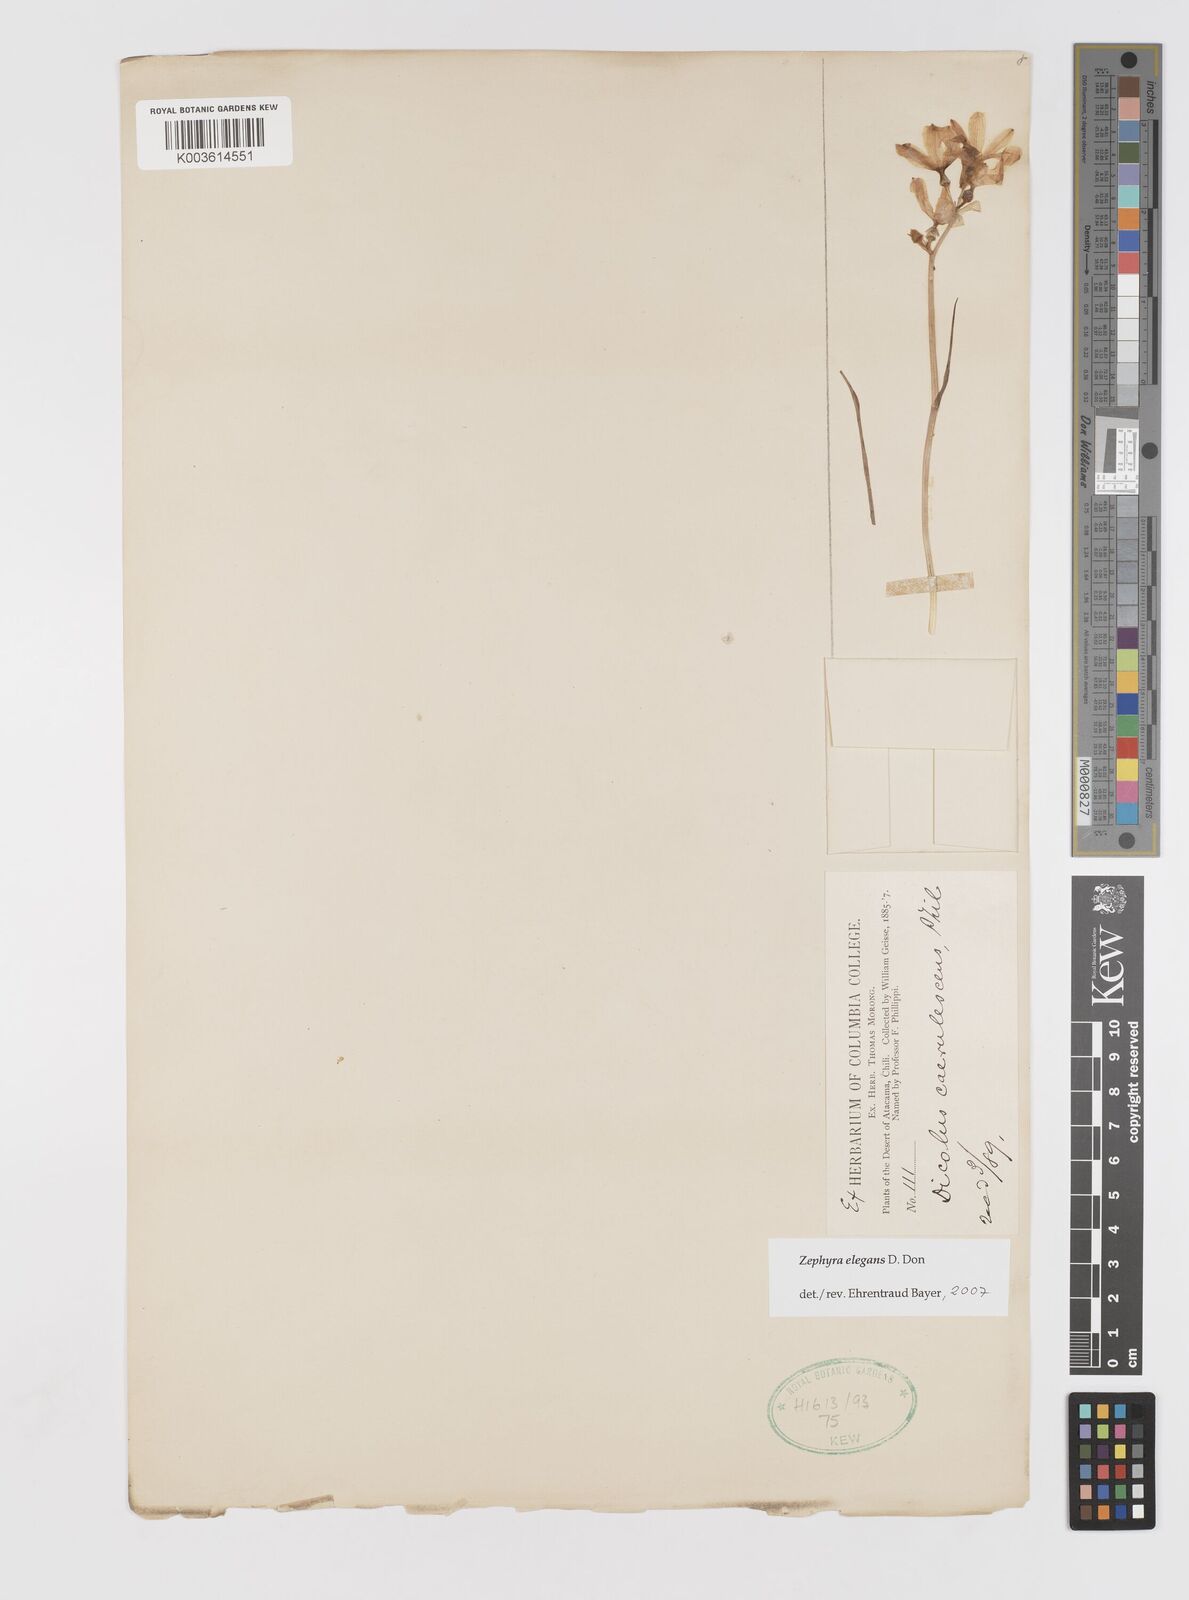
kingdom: Plantae
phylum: Tracheophyta
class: Liliopsida
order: Asparagales
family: Tecophilaeaceae
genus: Zephyra
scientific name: Zephyra elegans
